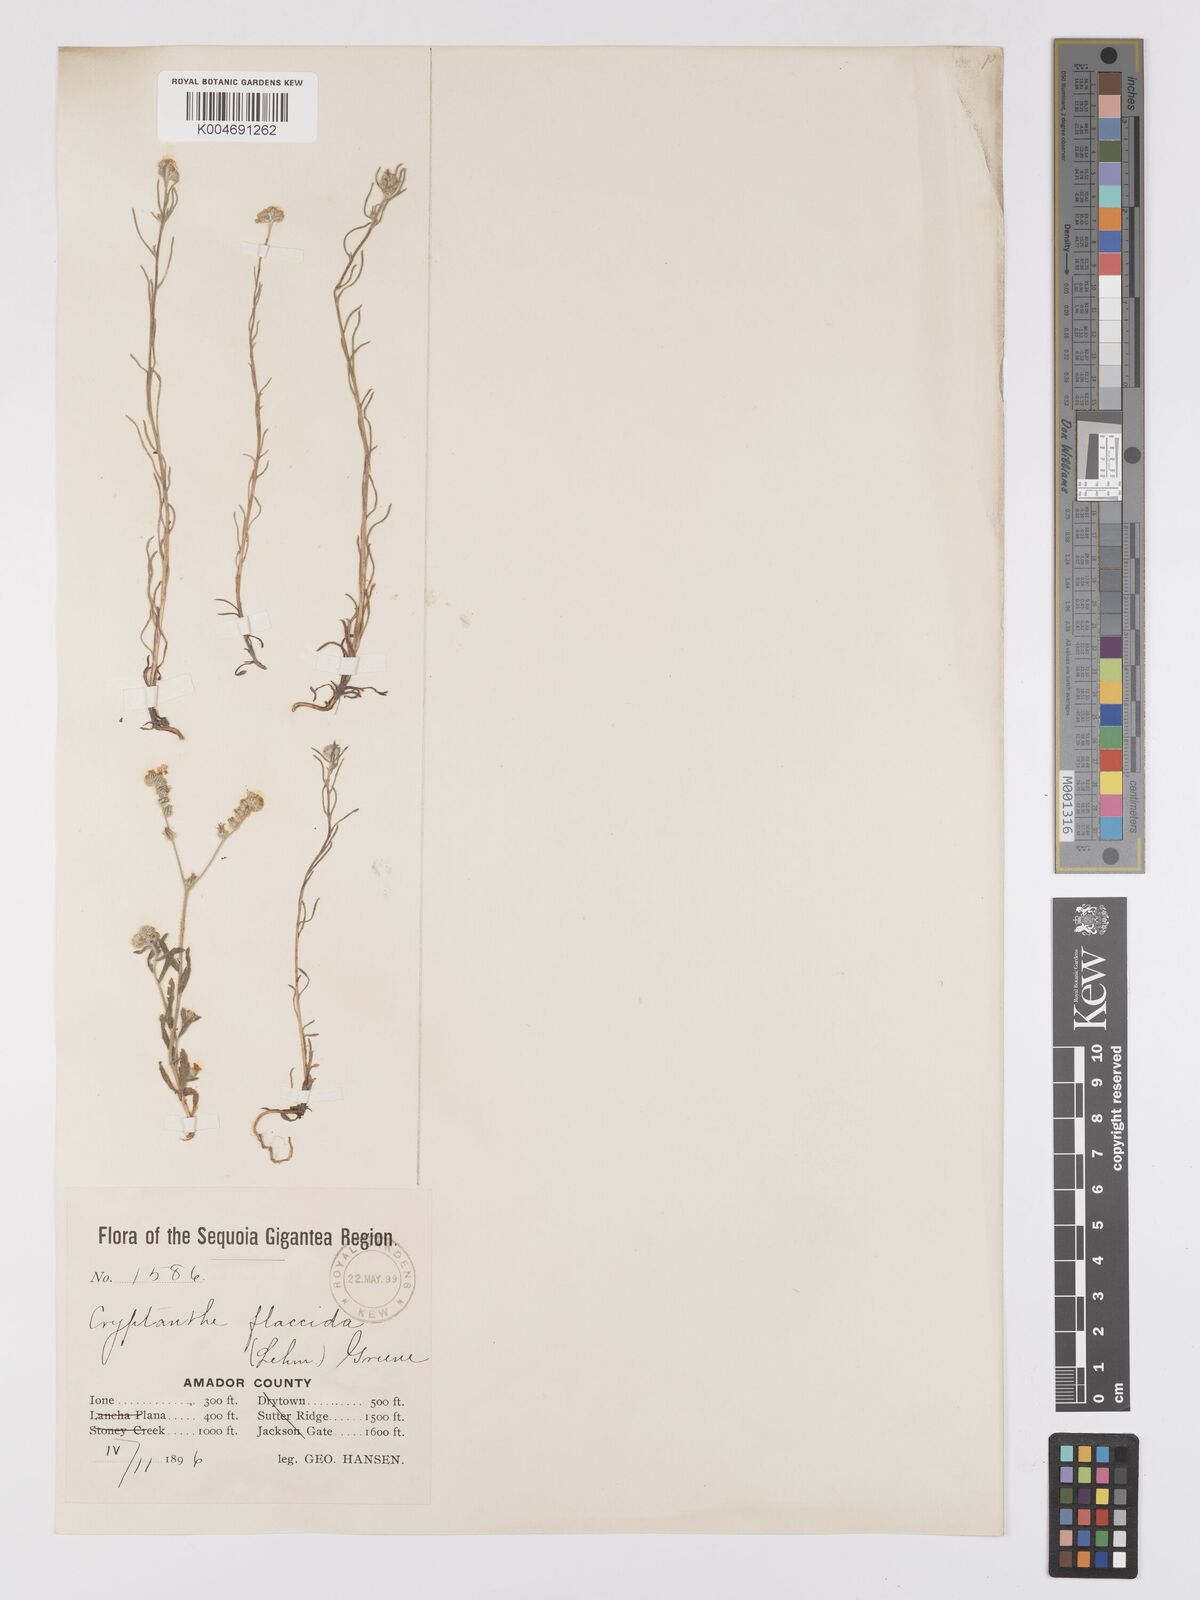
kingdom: Plantae
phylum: Tracheophyta
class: Magnoliopsida
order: Boraginales
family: Boraginaceae
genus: Cryptantha
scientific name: Cryptantha flaccida
